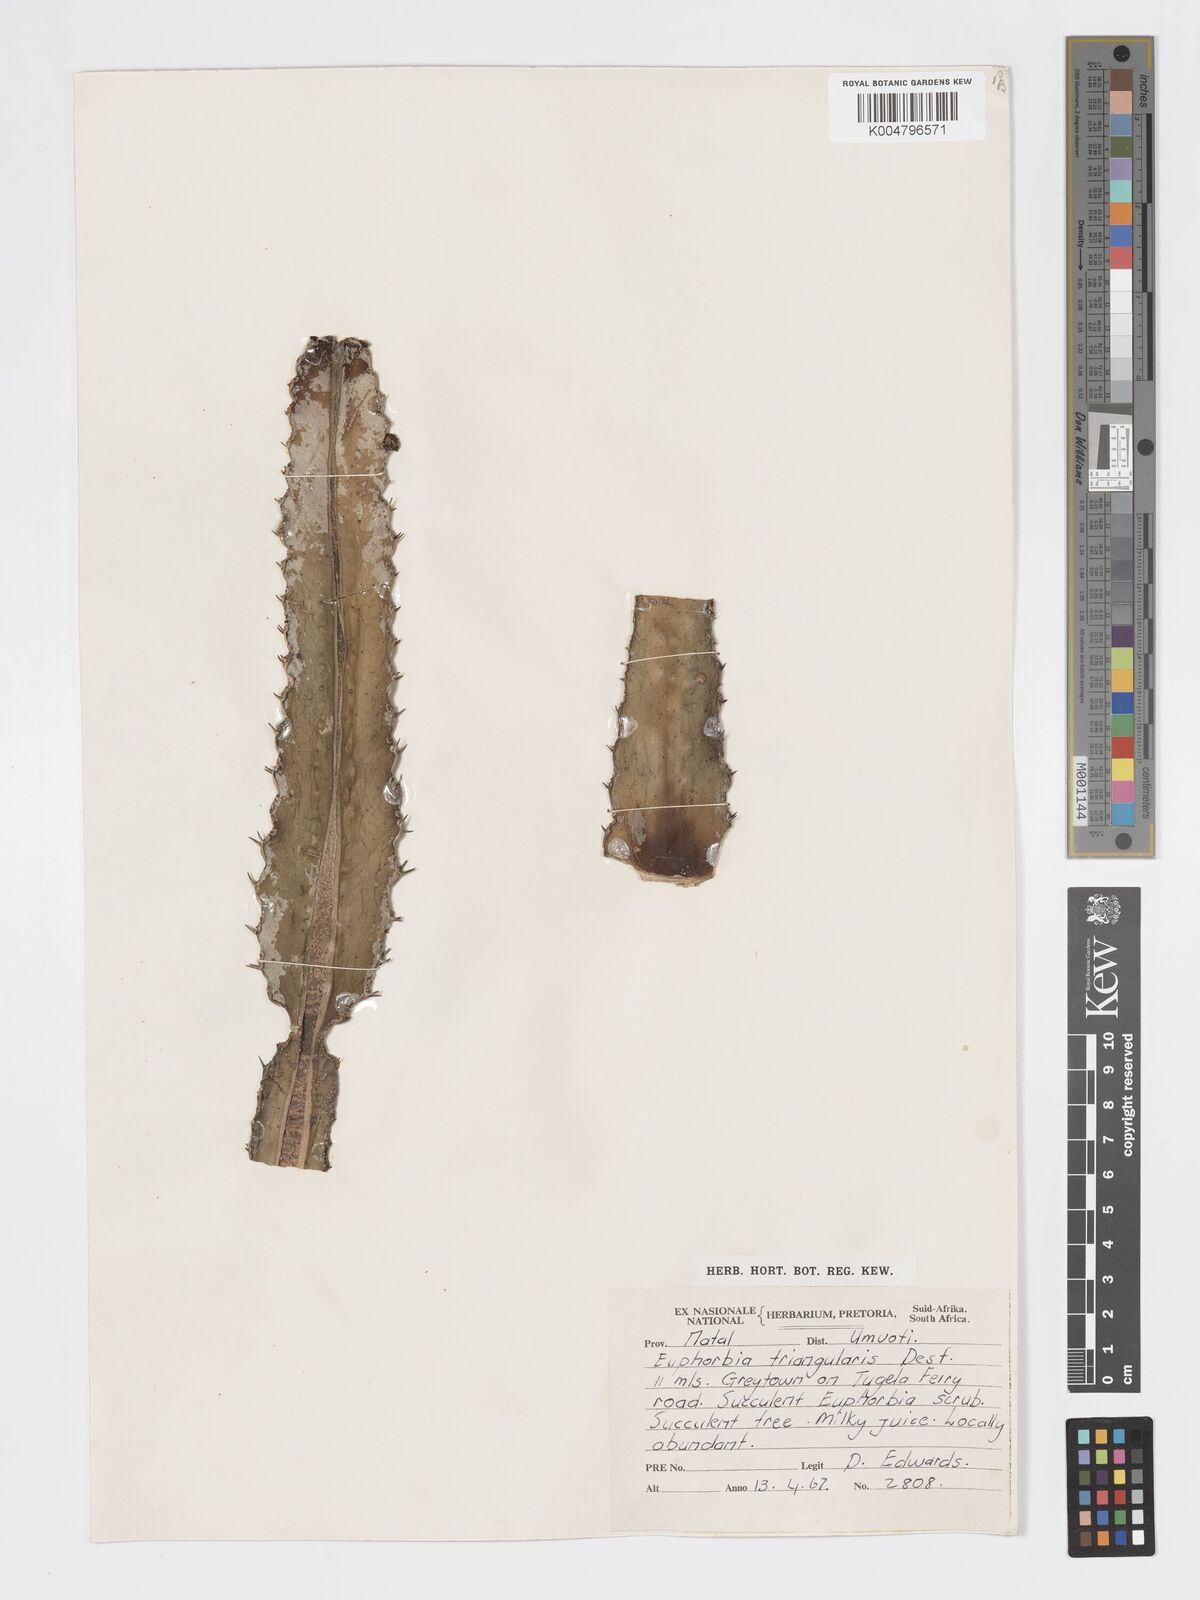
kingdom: Plantae
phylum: Tracheophyta
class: Magnoliopsida
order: Malpighiales
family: Euphorbiaceae
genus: Euphorbia
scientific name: Euphorbia triangularis
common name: Chandelier tree
